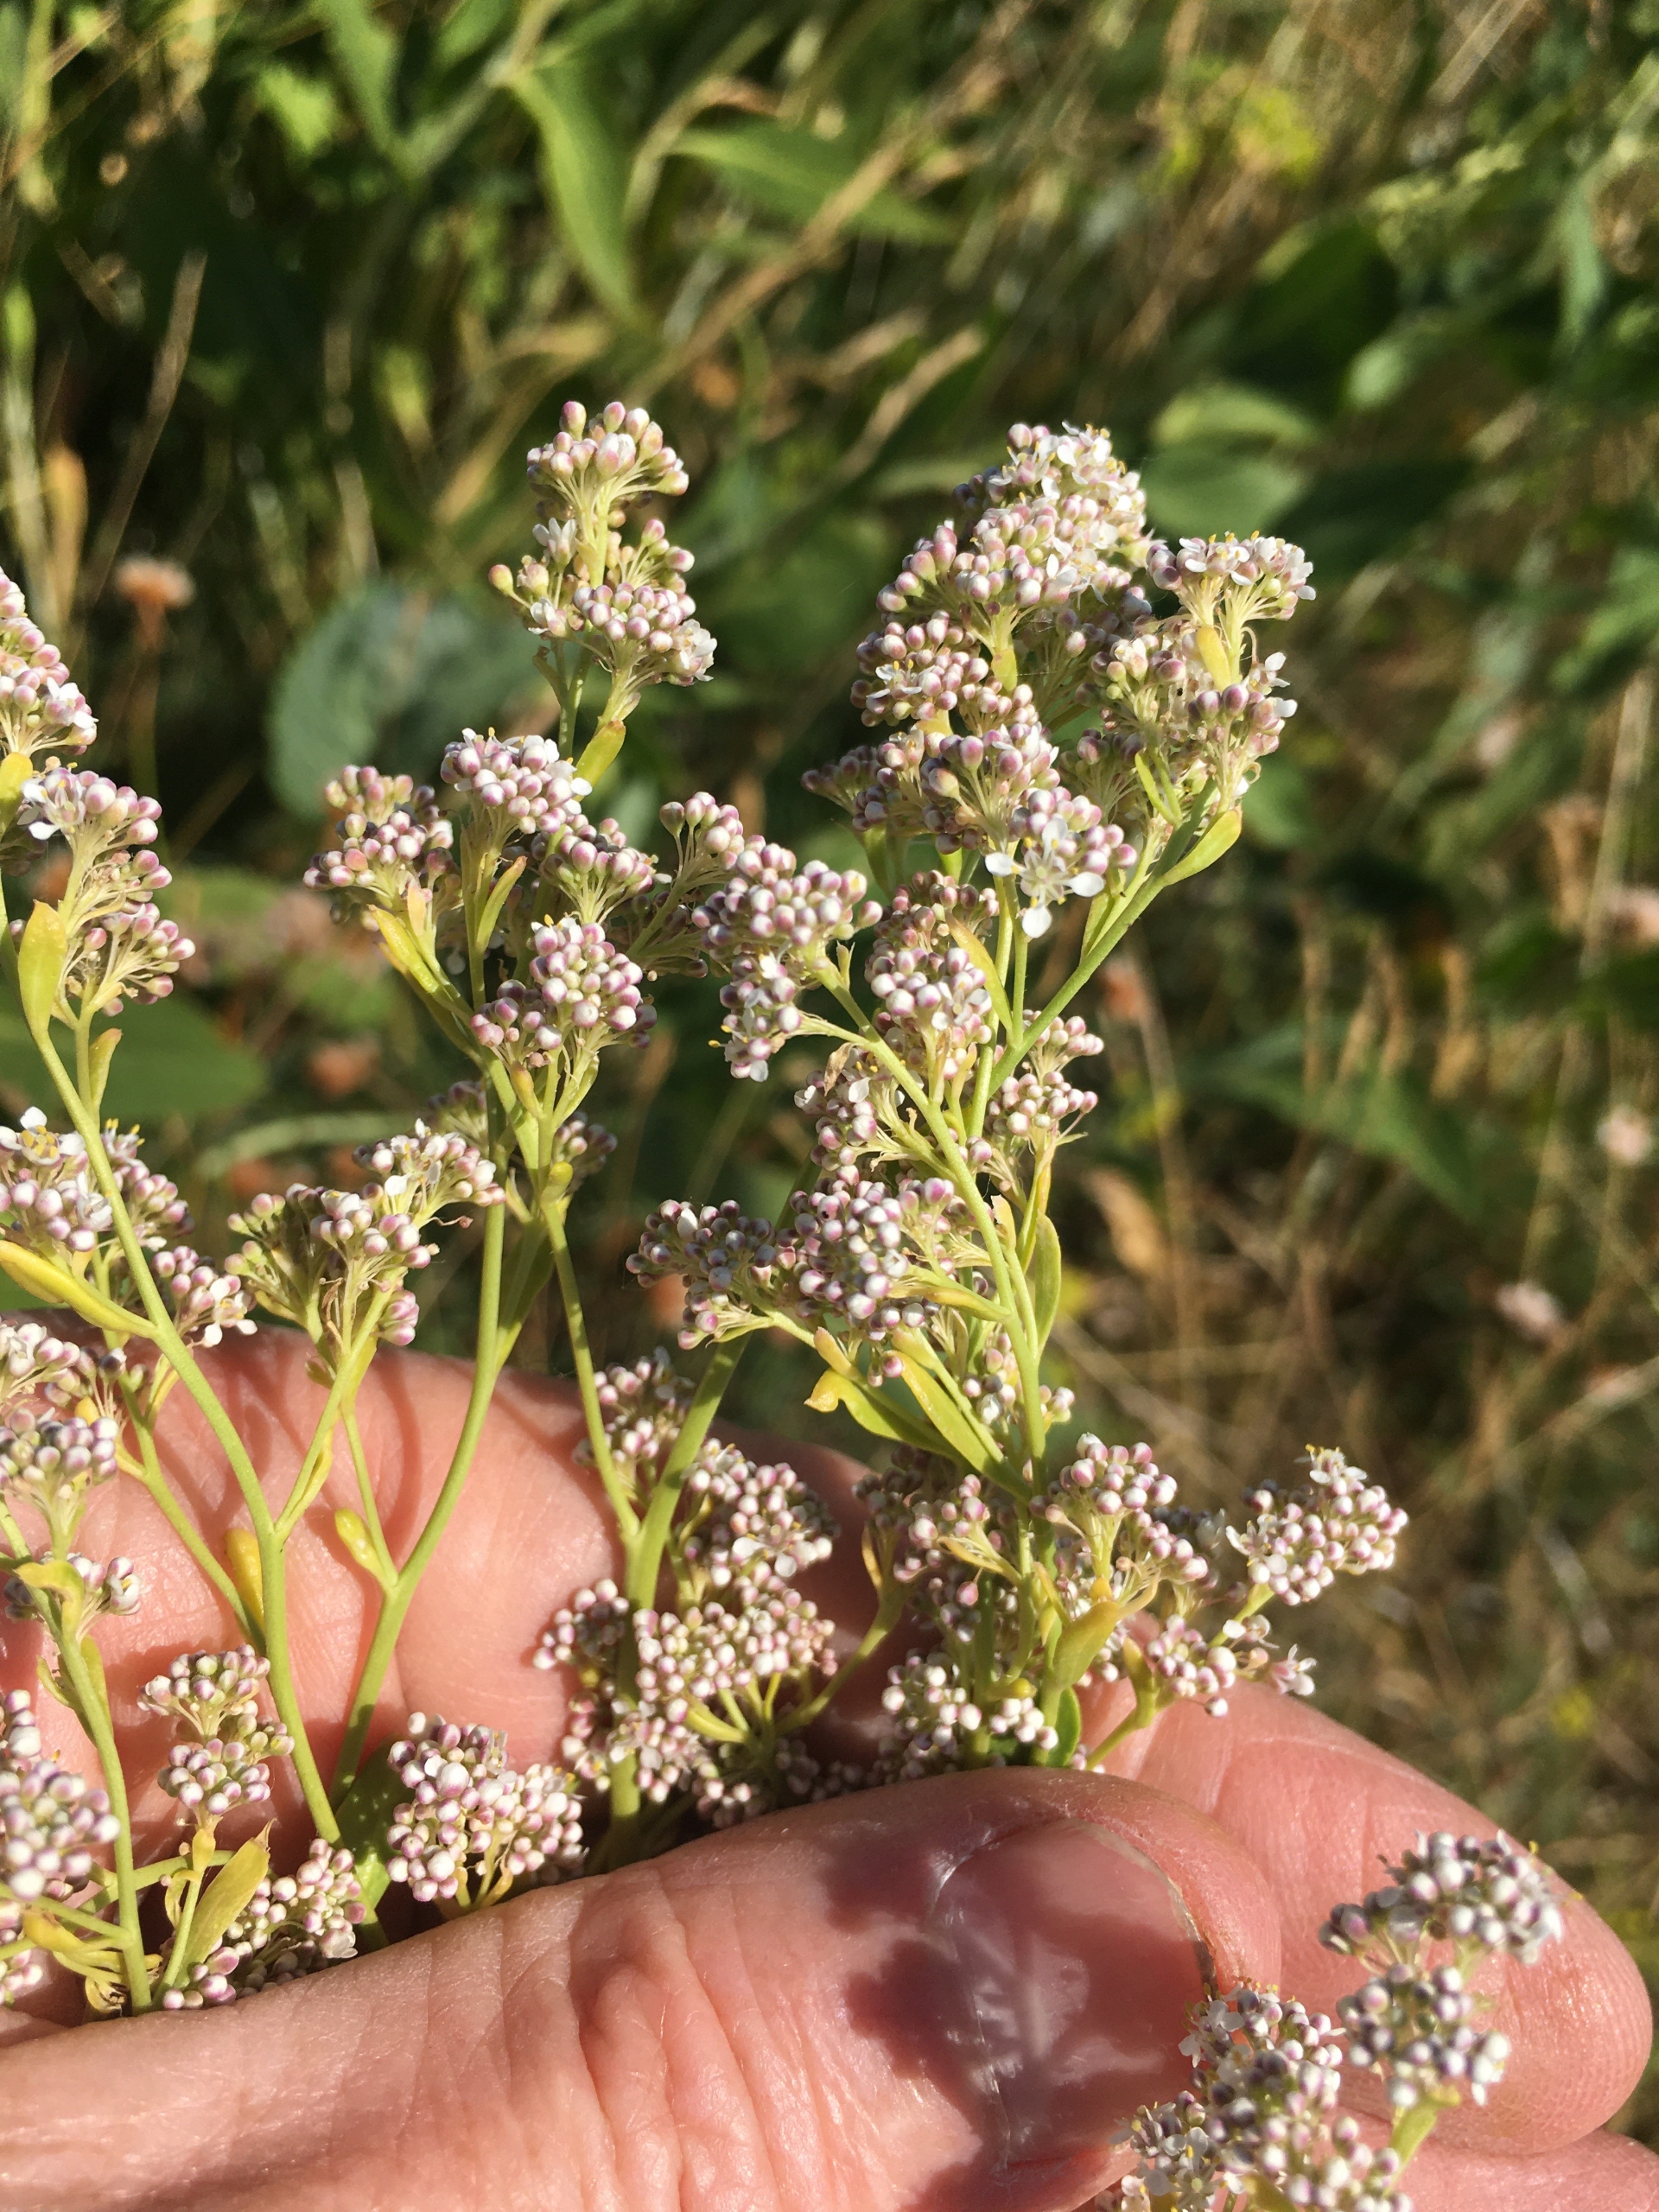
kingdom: Plantae
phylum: Tracheophyta
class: Magnoliopsida
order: Brassicales
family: Brassicaceae
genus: Lepidium
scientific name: Lepidium latifolium
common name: Strand-karse
